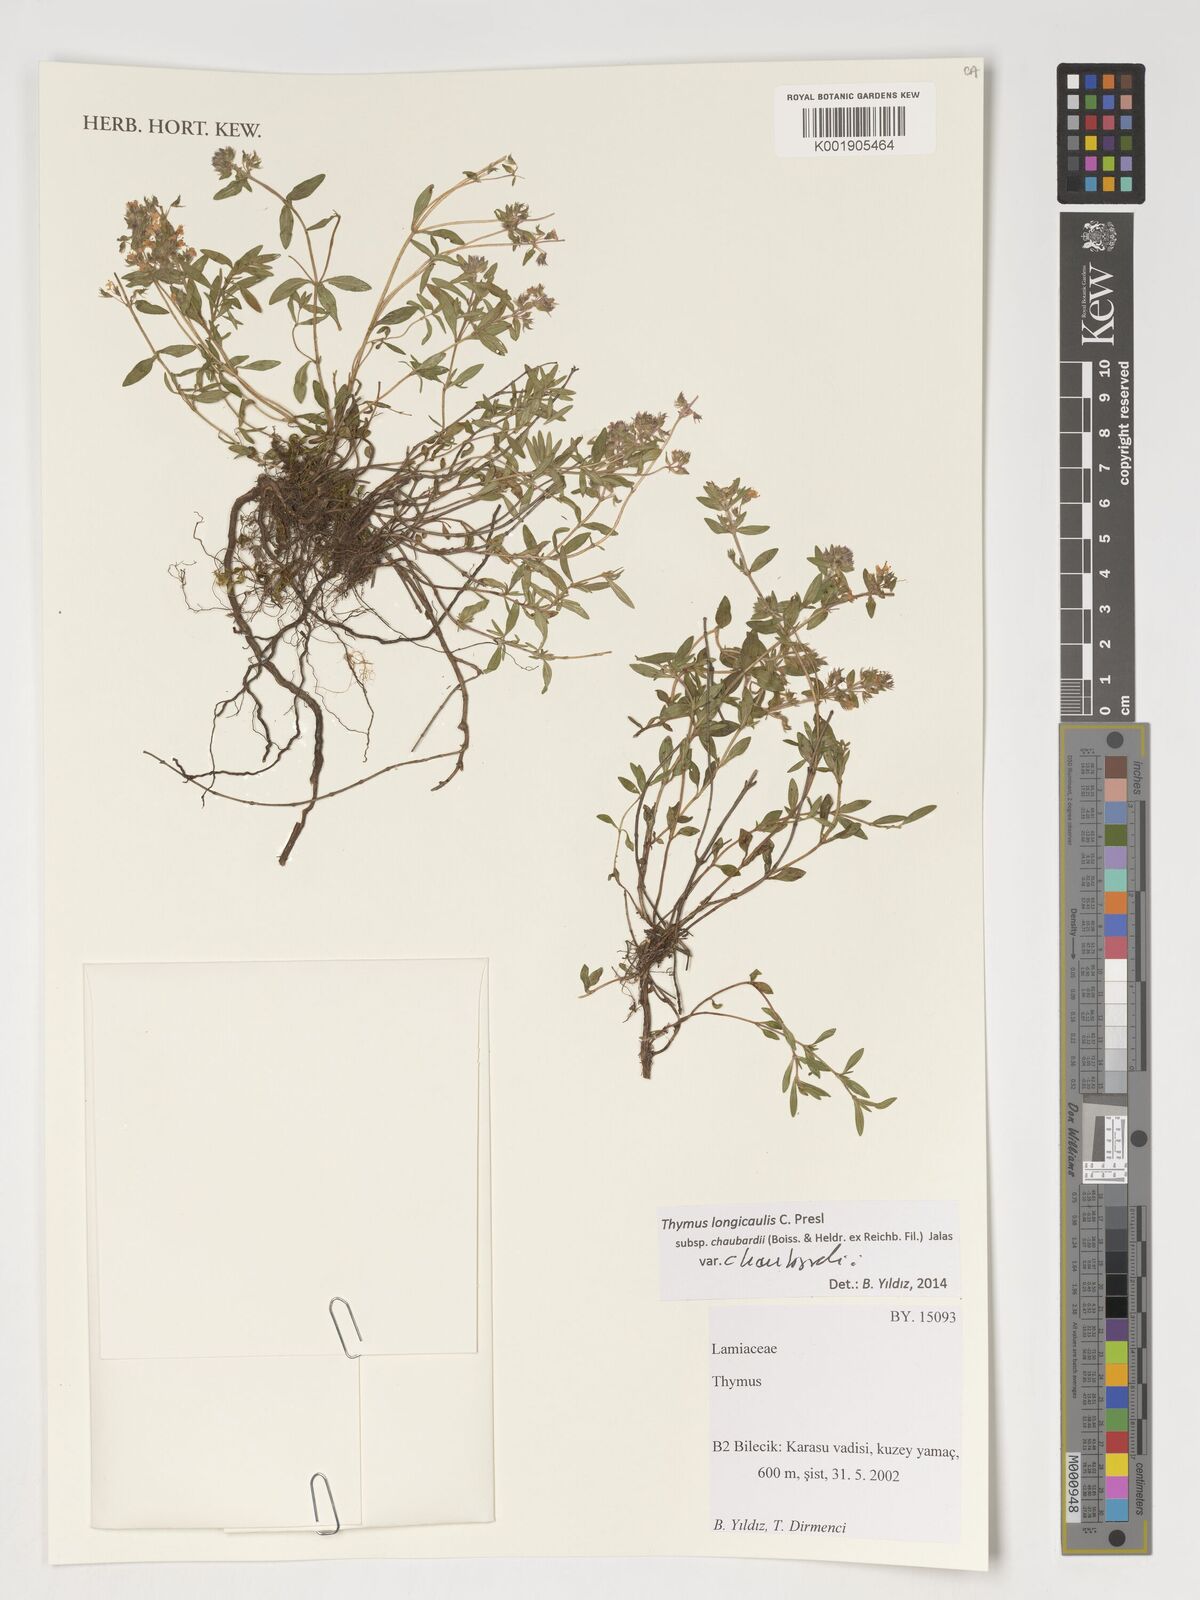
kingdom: Plantae
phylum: Tracheophyta
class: Magnoliopsida
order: Lamiales
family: Lamiaceae
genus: Thymus
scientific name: Thymus longicaulis
